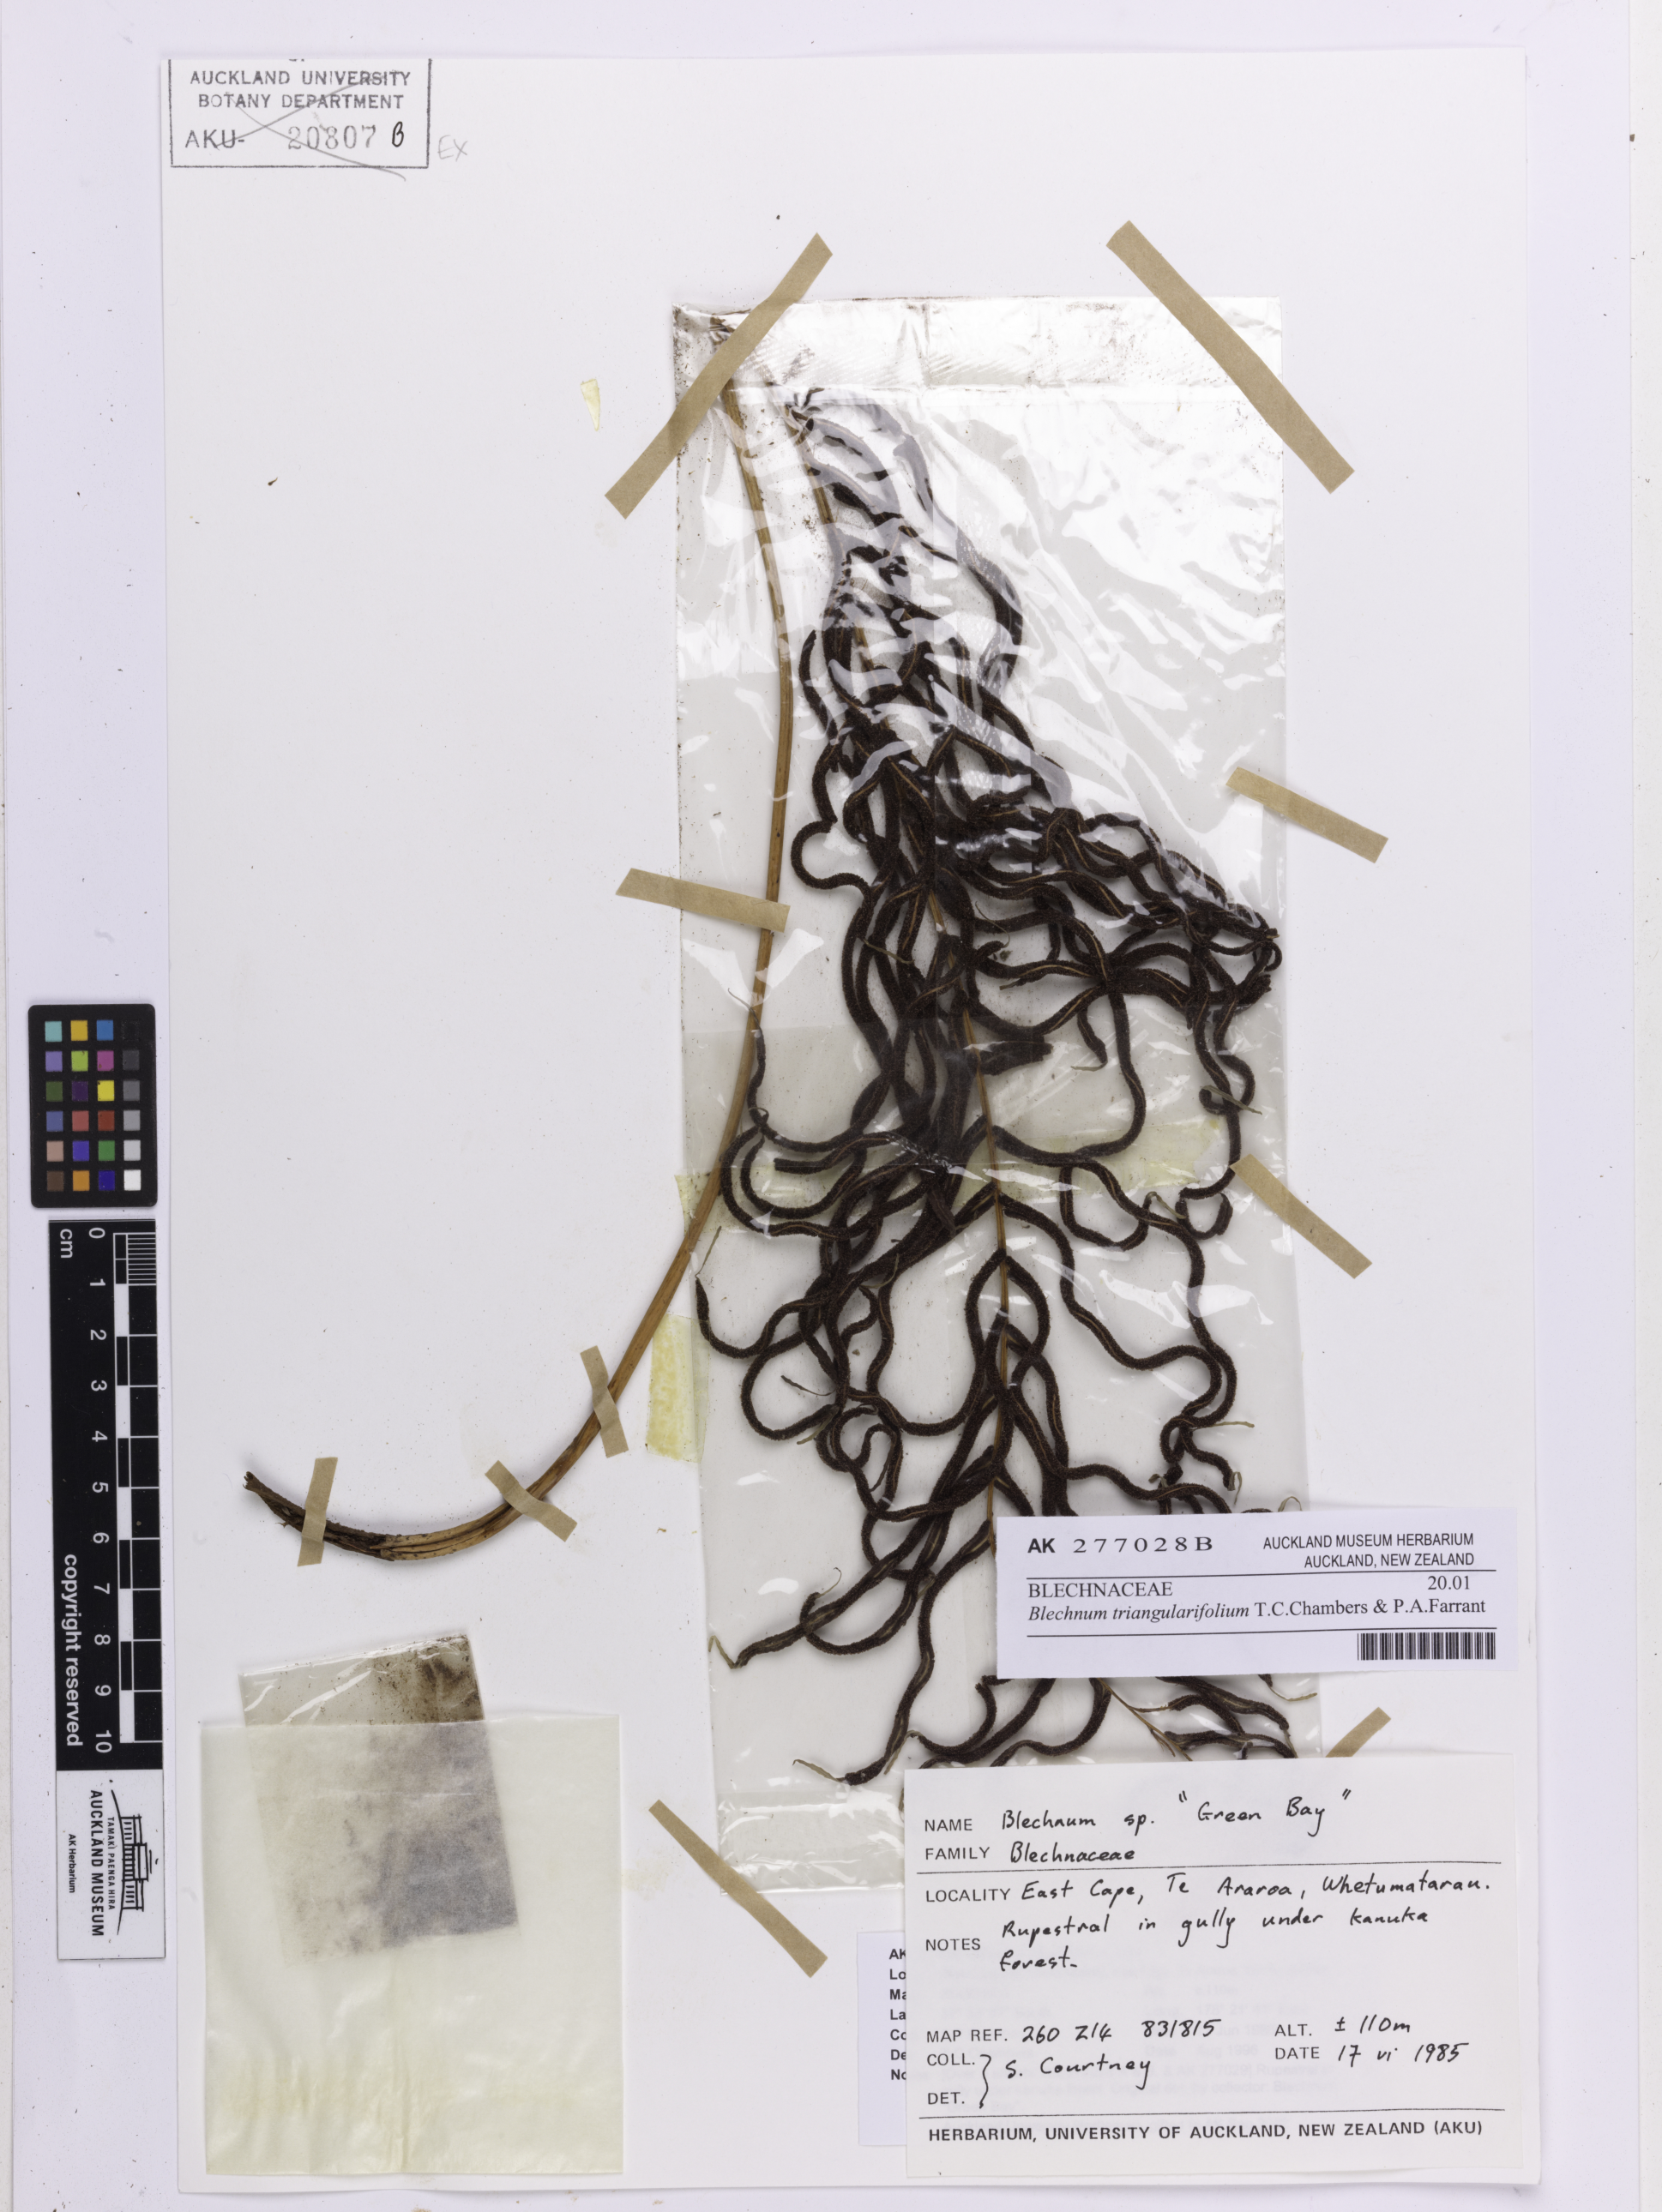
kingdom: Plantae
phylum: Tracheophyta
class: Polypodiopsida
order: Polypodiales
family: Blechnaceae
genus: Parablechnum
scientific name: Parablechnum triangularifolium
